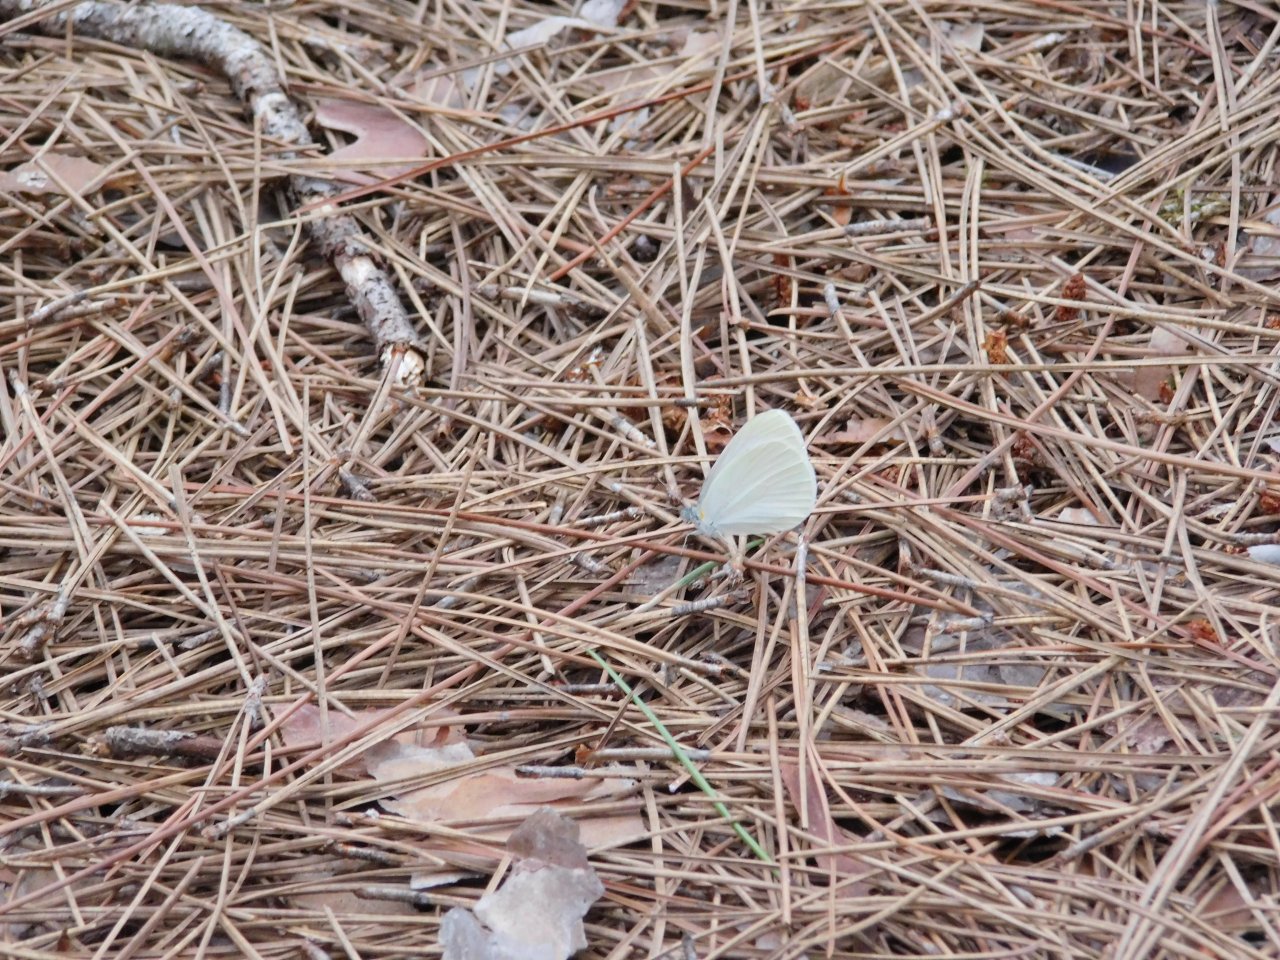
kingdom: Animalia
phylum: Arthropoda
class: Insecta
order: Lepidoptera
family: Pieridae
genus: Pieris
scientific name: Pieris oleracea
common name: Mustard White
